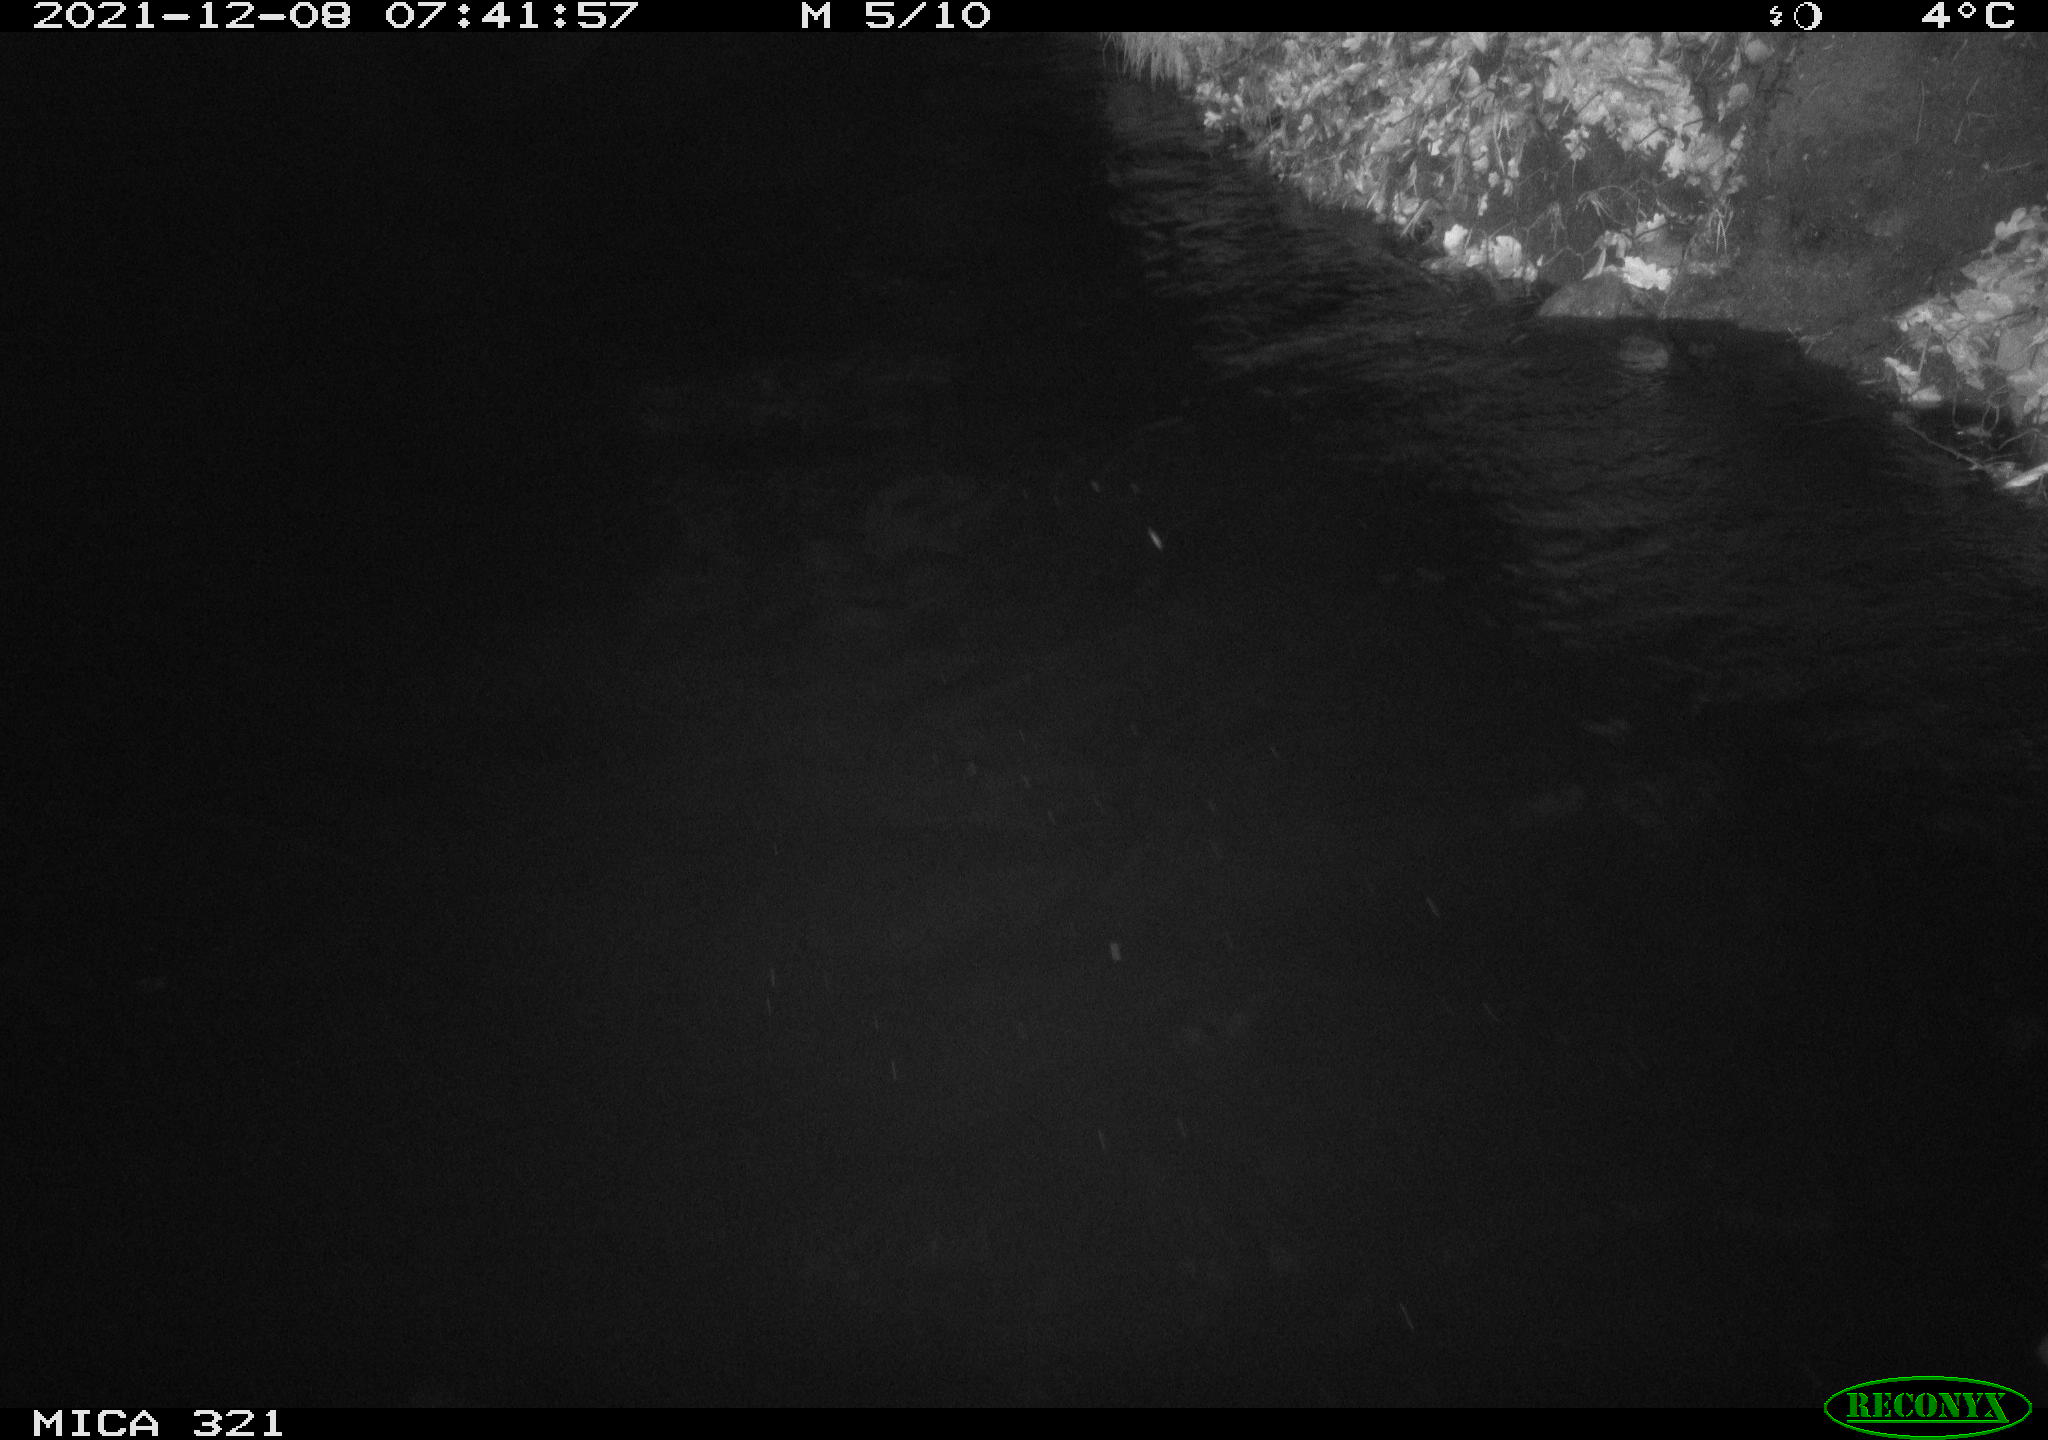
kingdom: Animalia
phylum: Chordata
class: Aves
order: Anseriformes
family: Anatidae
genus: Anas
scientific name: Anas platyrhynchos
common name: Mallard
